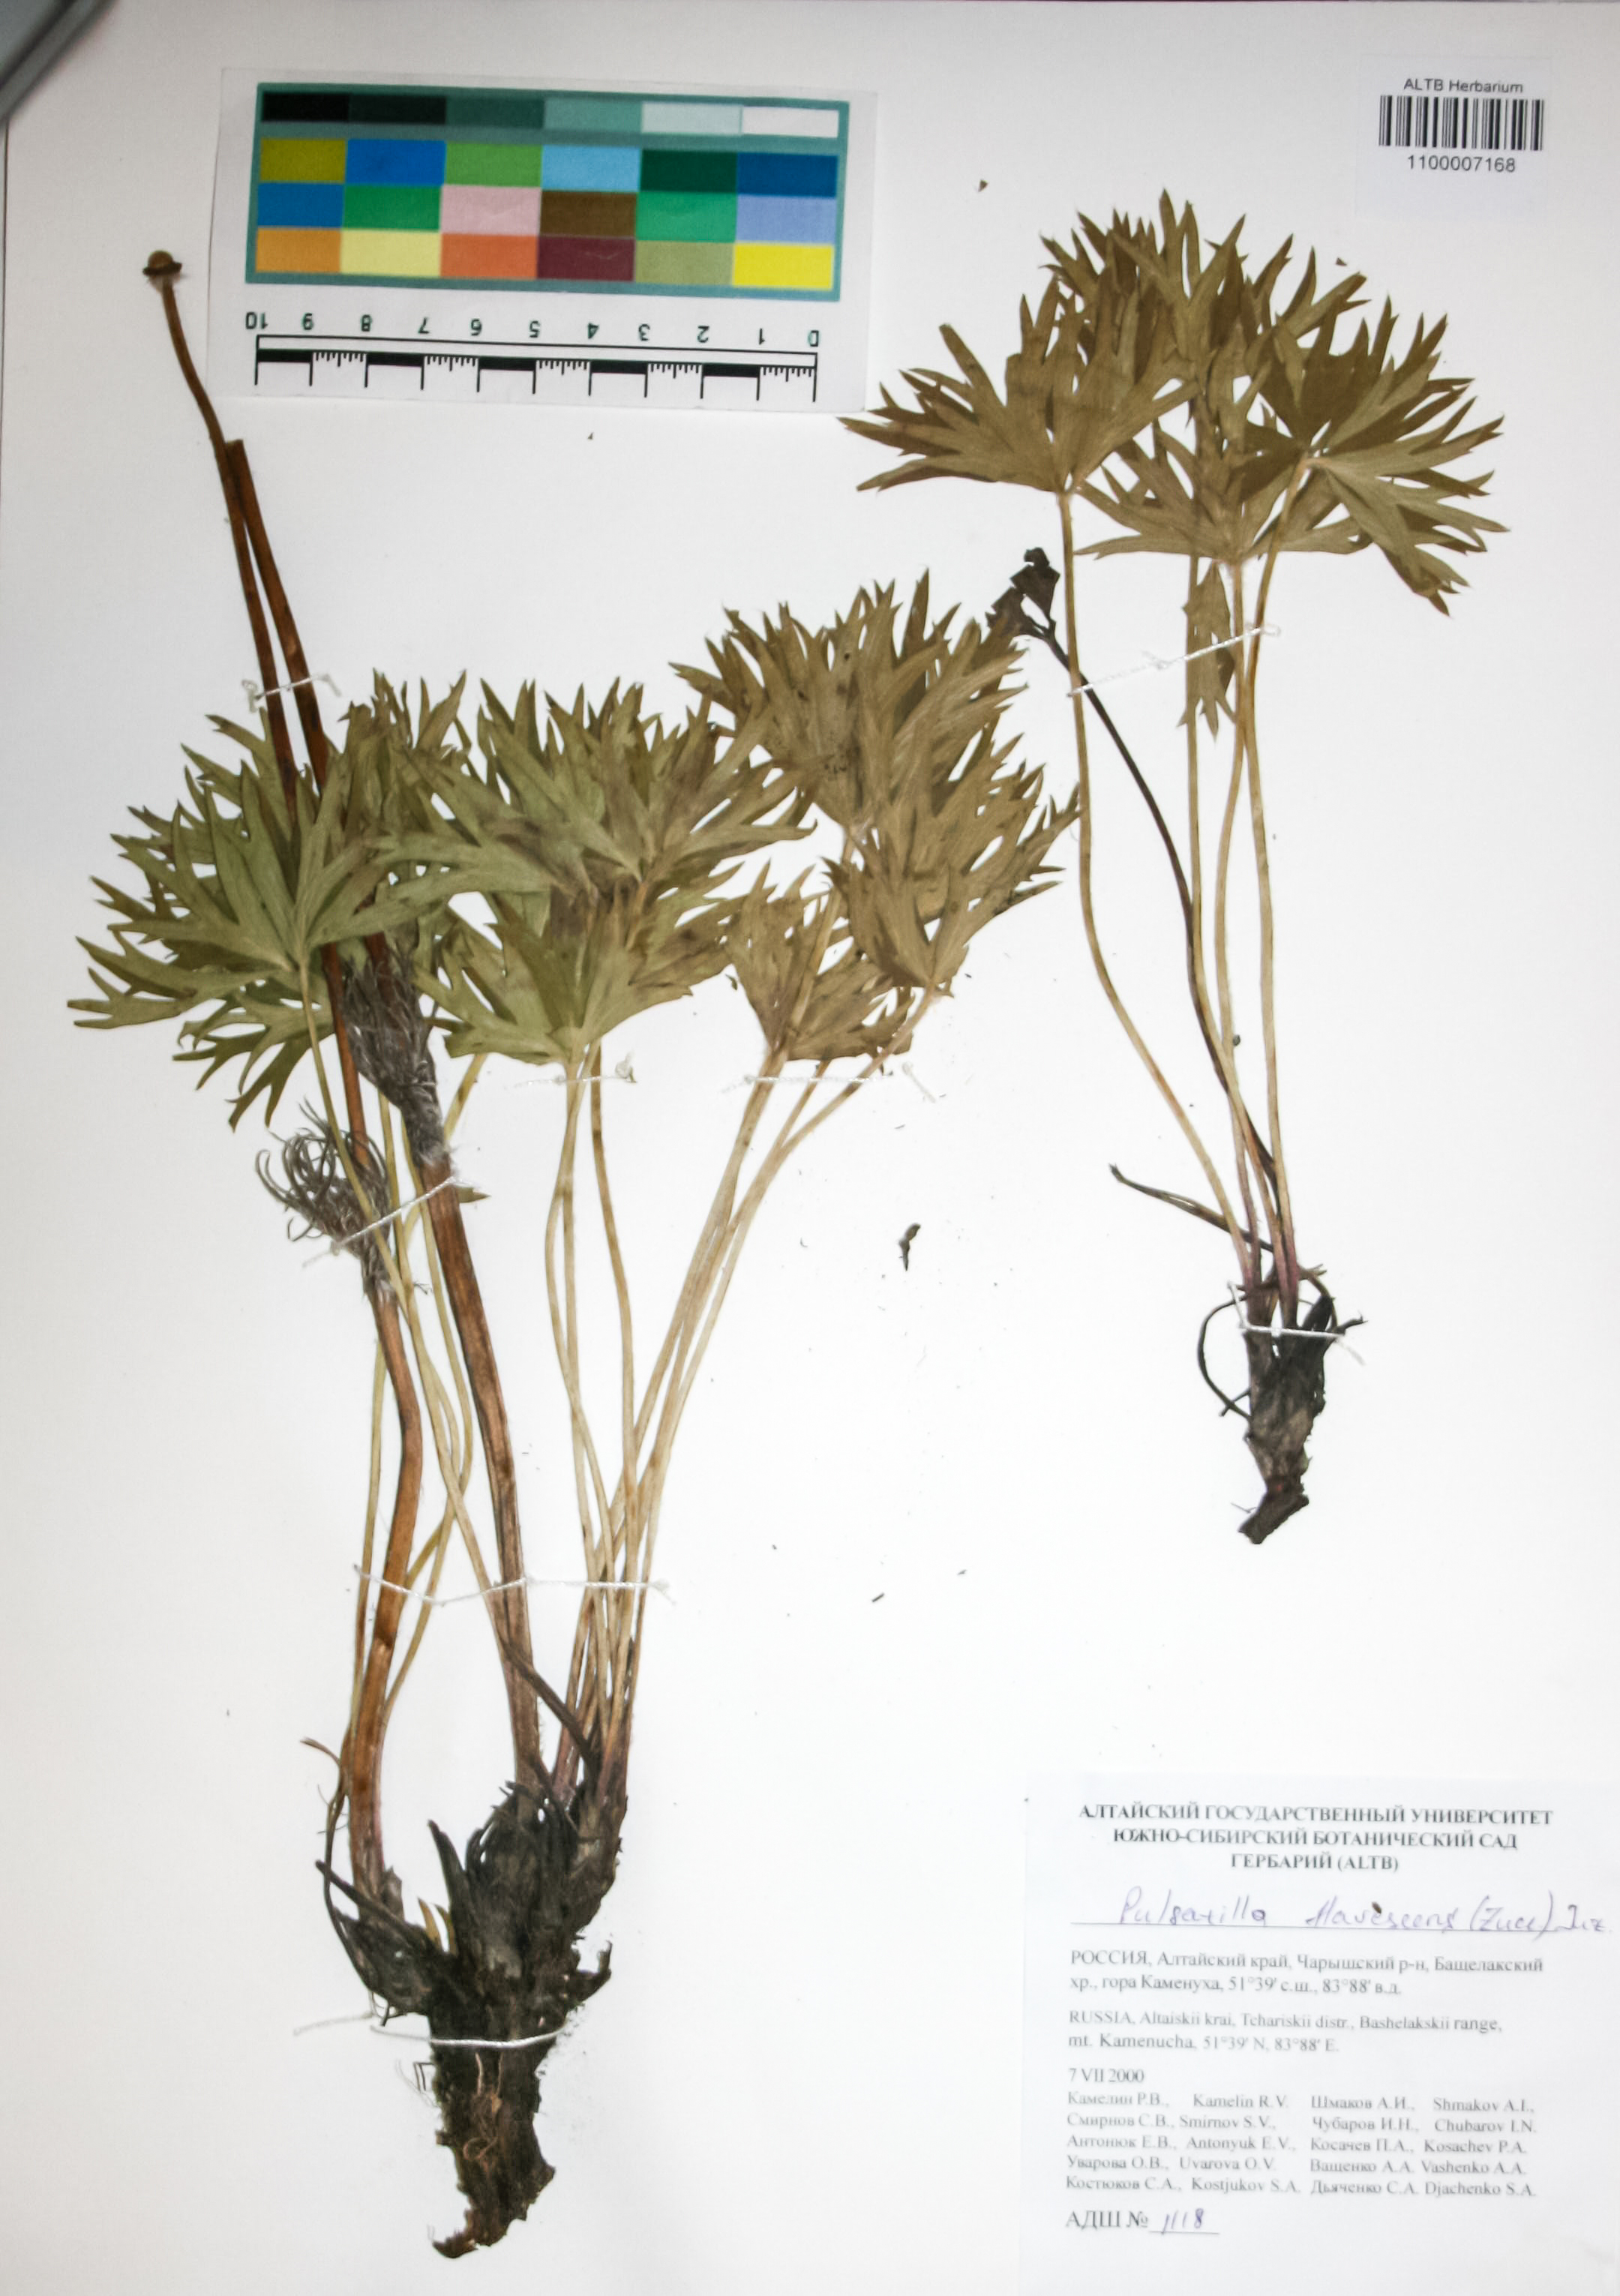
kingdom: Plantae
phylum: Tracheophyta
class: Magnoliopsida
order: Ranunculales
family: Ranunculaceae
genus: Pulsatilla
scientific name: Pulsatilla patens
